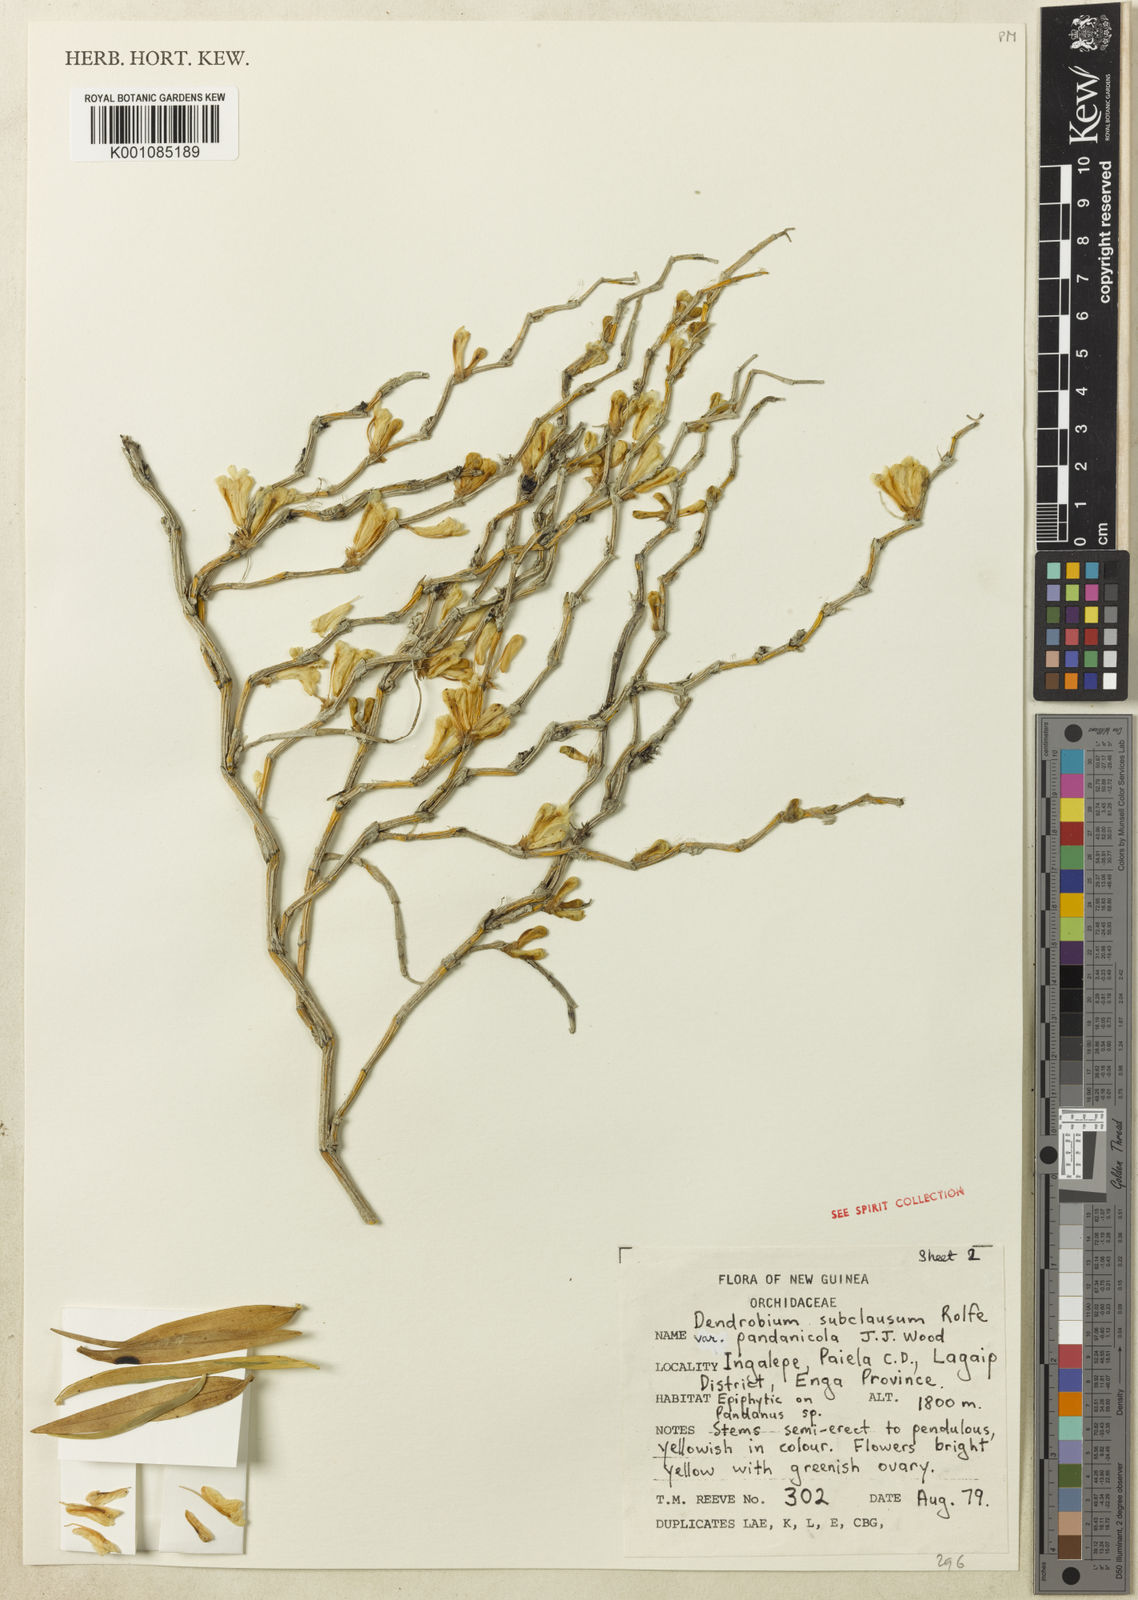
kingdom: Plantae
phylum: Tracheophyta
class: Liliopsida
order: Asparagales
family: Orchidaceae
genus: Dendrobium
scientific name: Dendrobium subclausum
